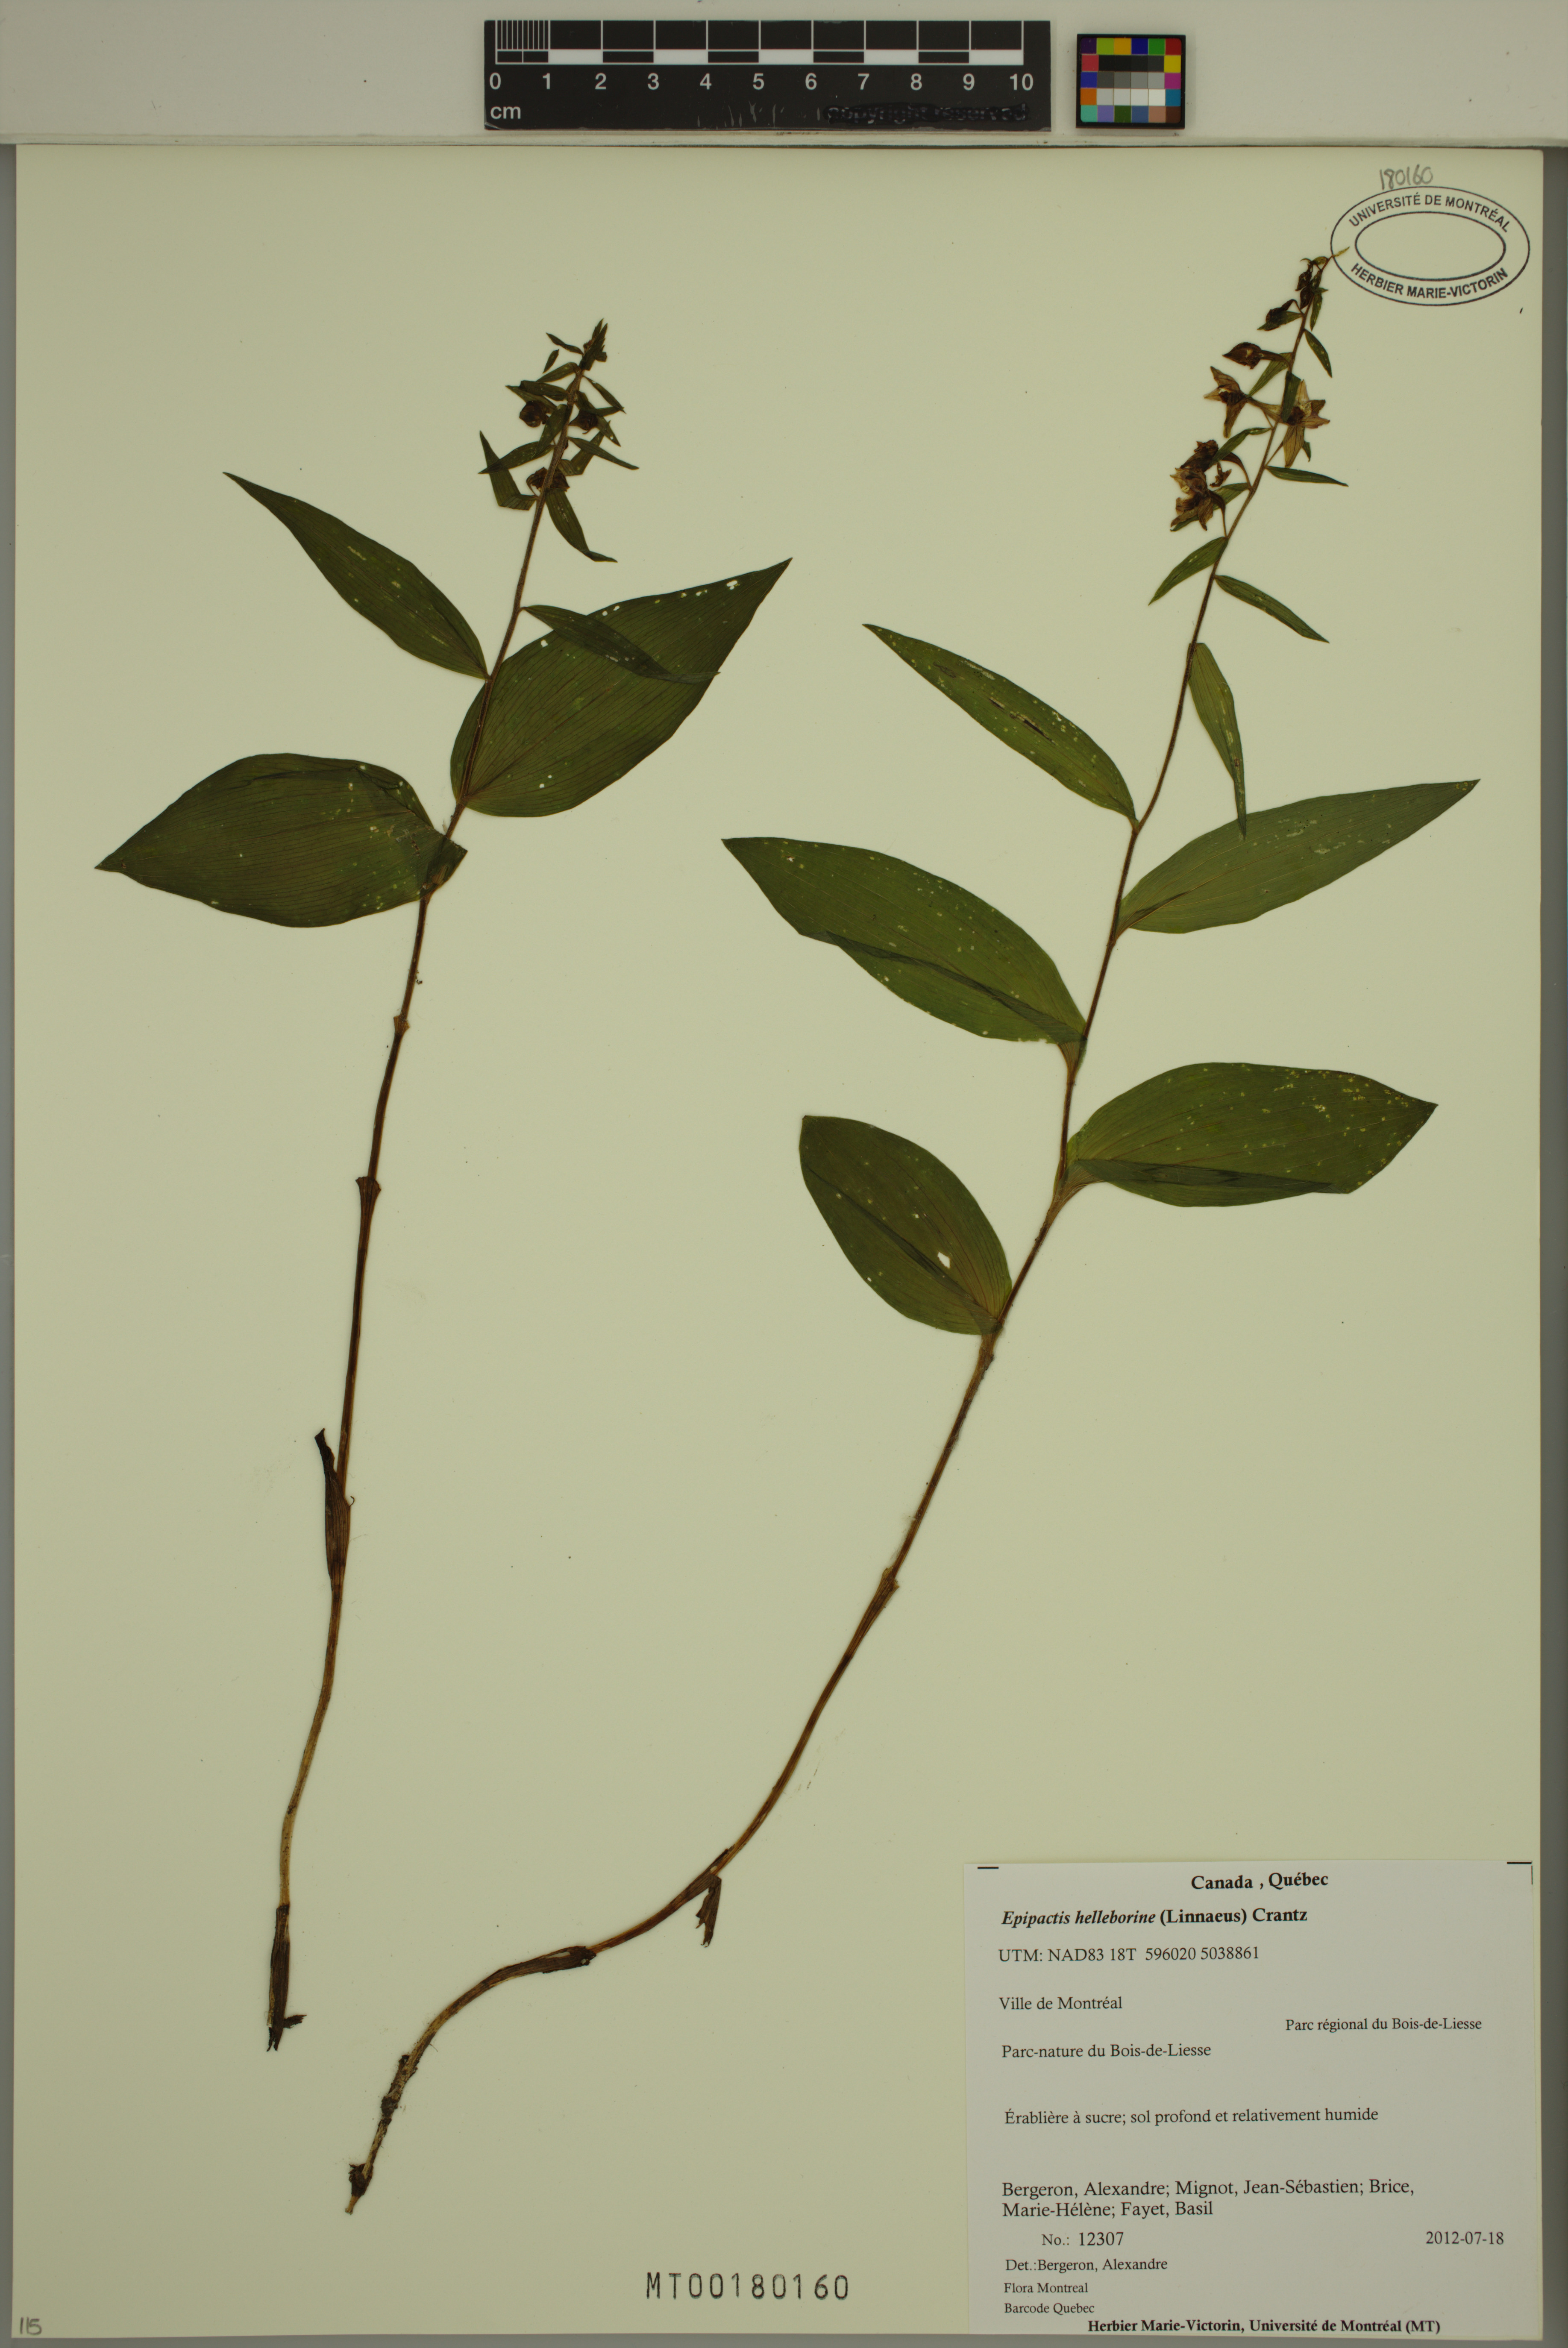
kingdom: Plantae
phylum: Tracheophyta
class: Liliopsida
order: Asparagales
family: Orchidaceae
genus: Epipactis
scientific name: Epipactis helleborine
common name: Broad-leaved helleborine
